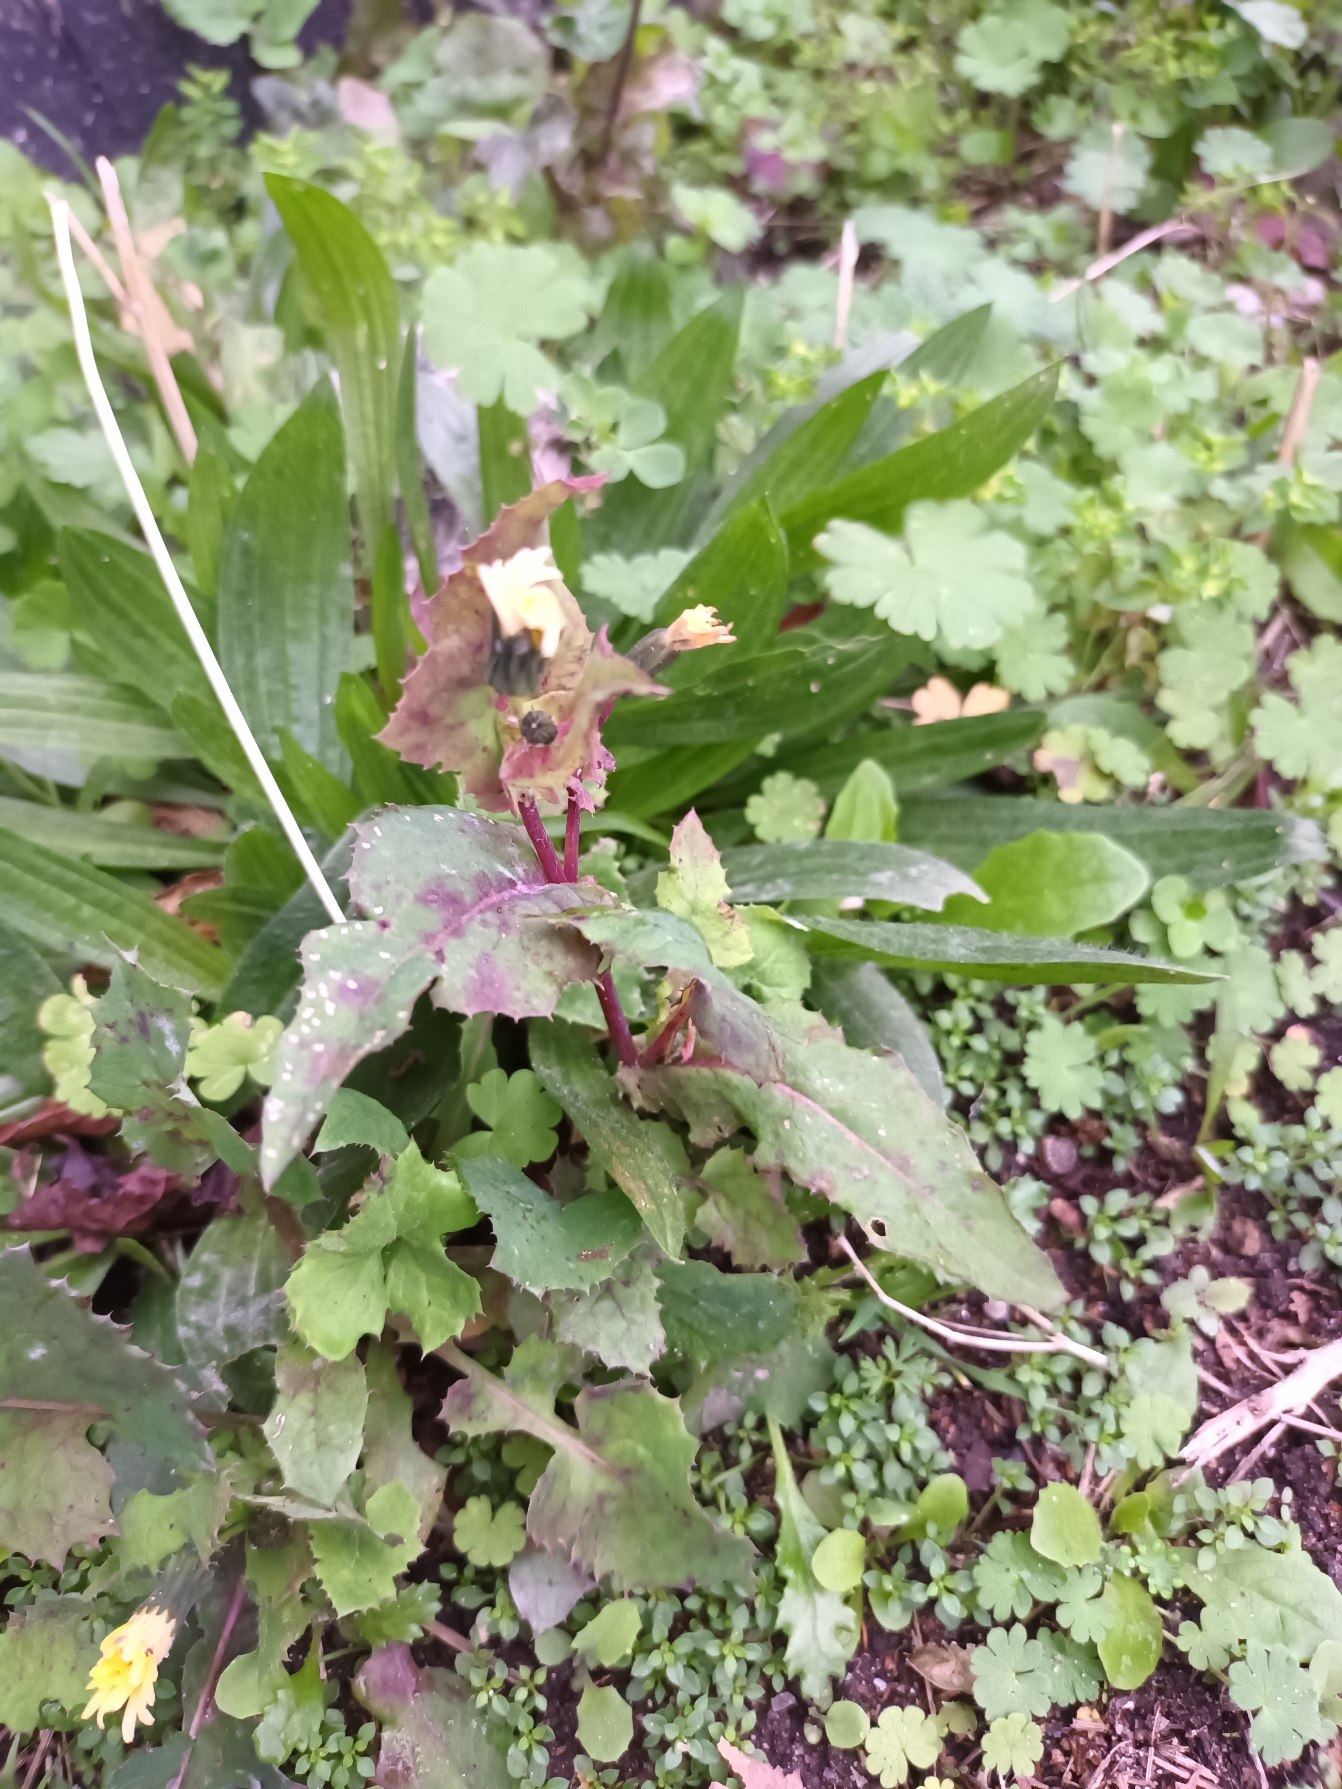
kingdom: Plantae
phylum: Tracheophyta
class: Magnoliopsida
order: Asterales
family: Asteraceae
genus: Sonchus
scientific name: Sonchus oleraceus
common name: Almindelig svinemælk
